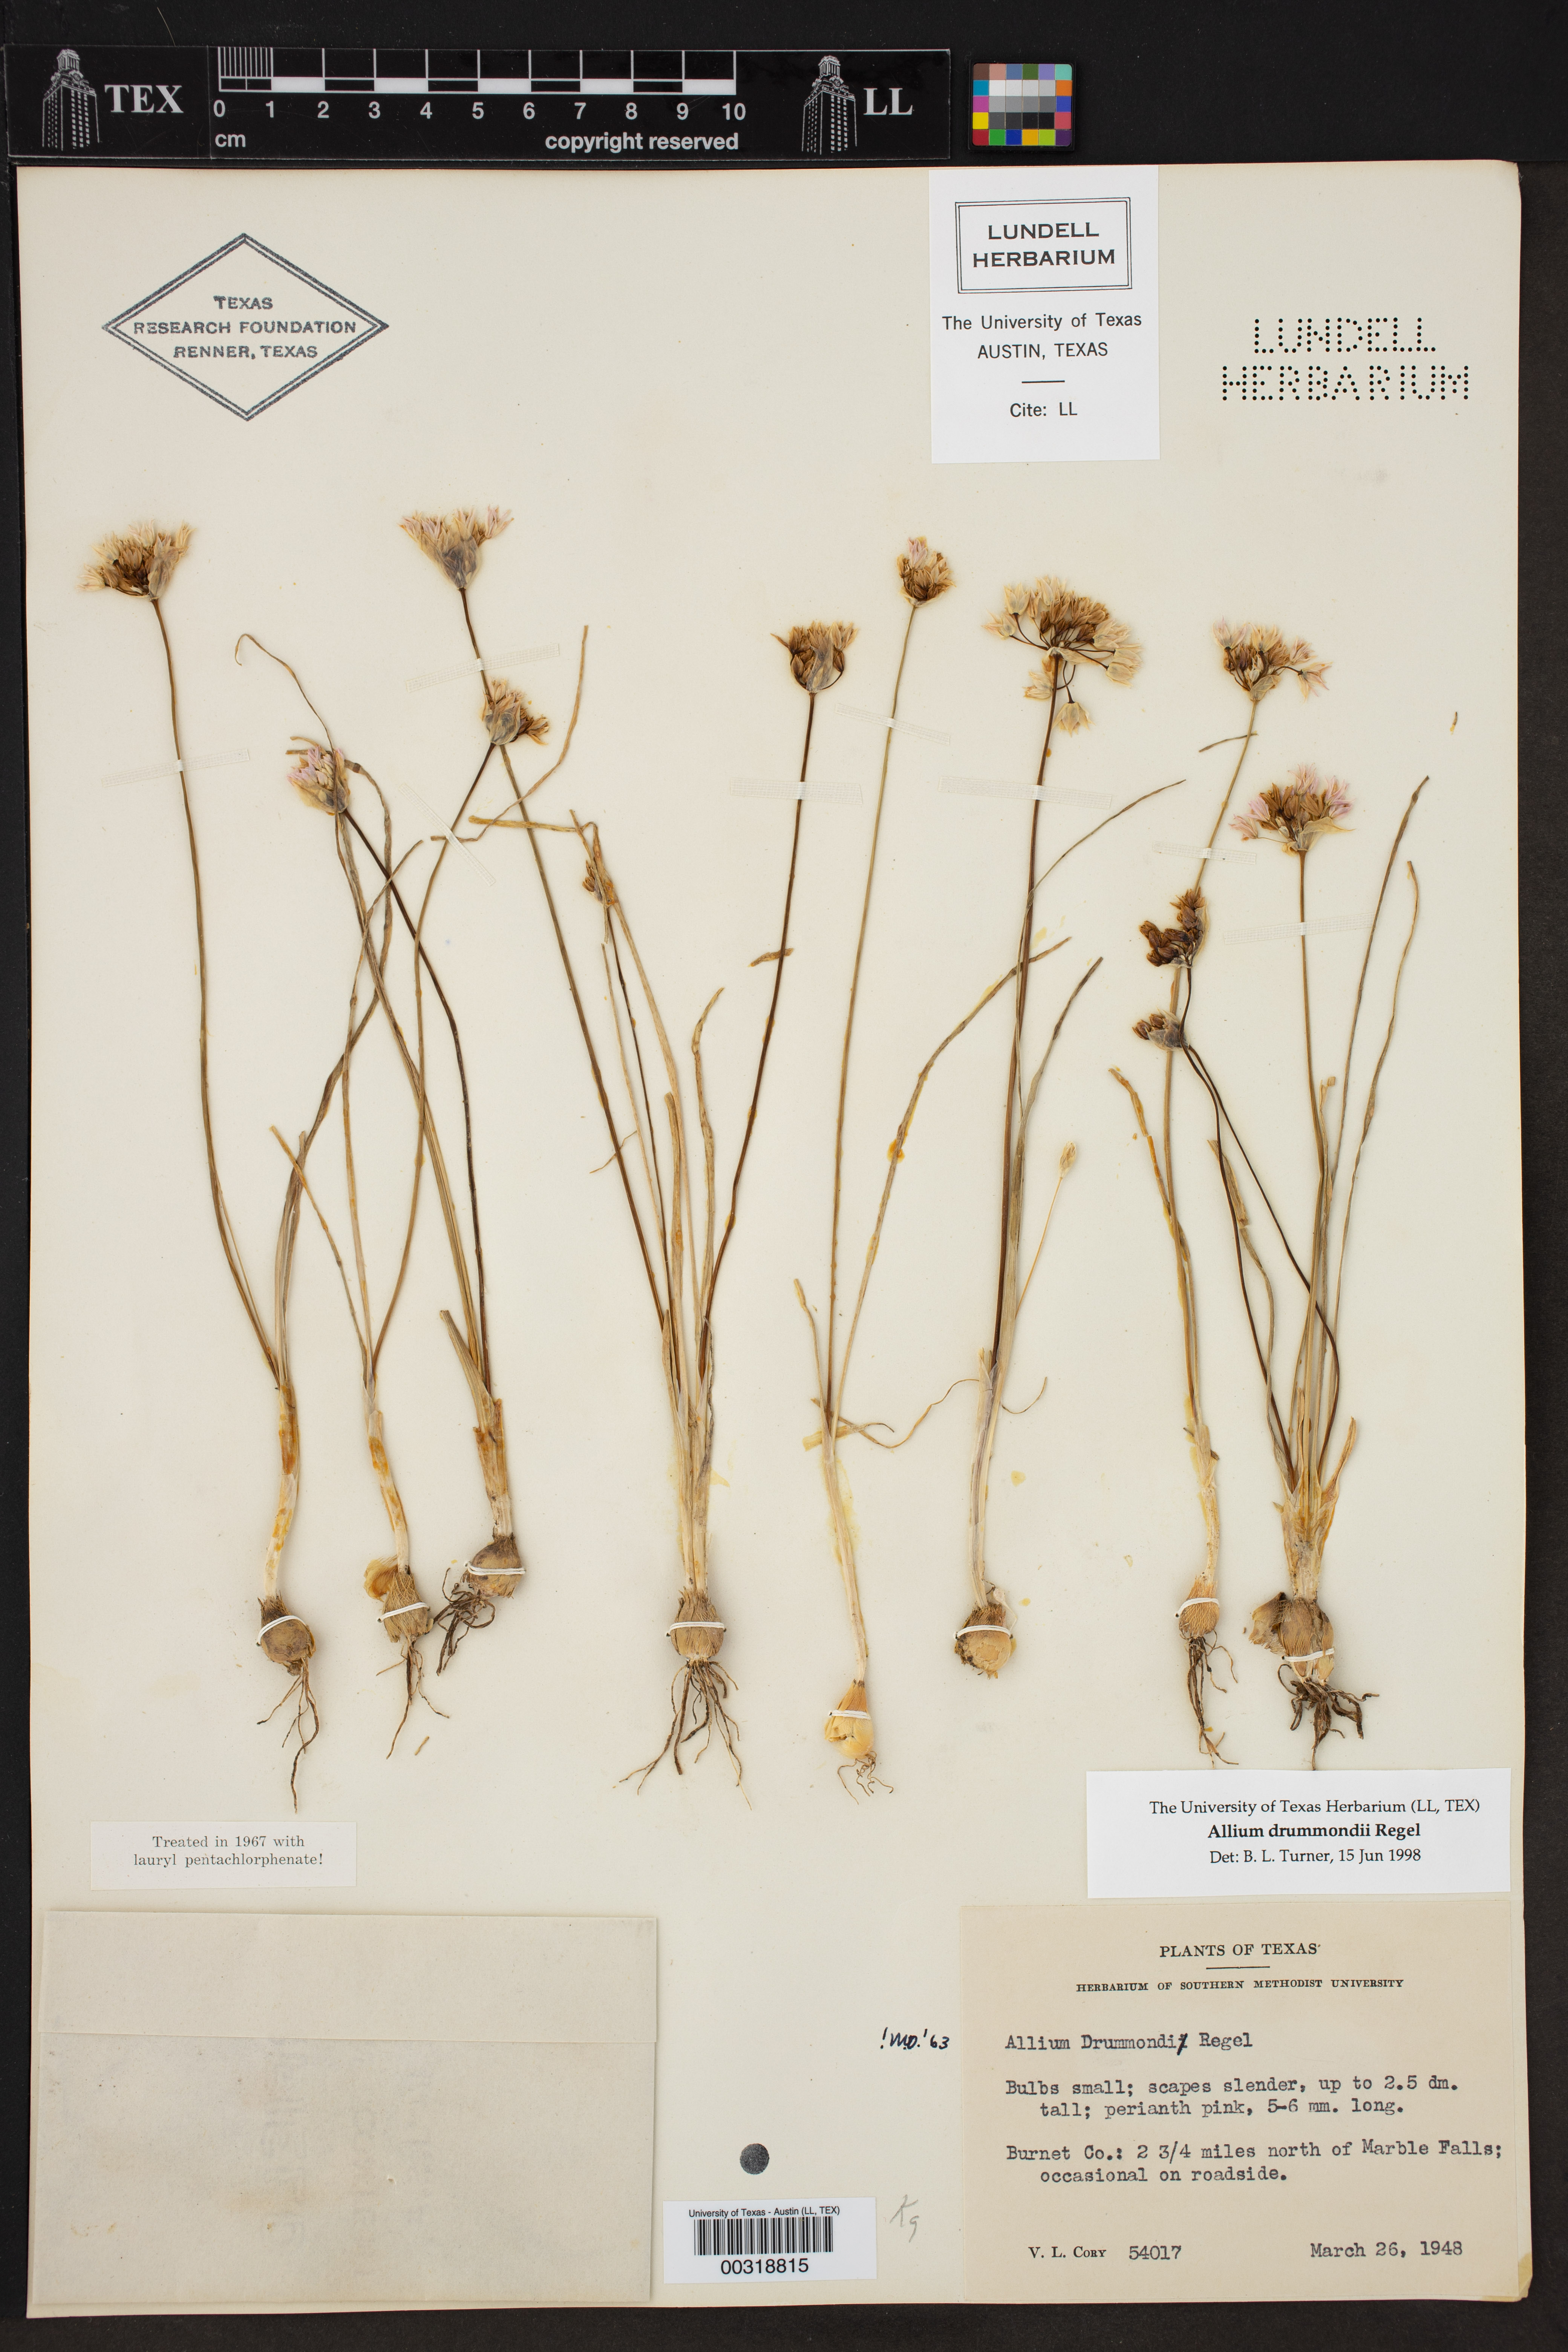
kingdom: Plantae
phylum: Tracheophyta
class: Liliopsida
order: Asparagales
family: Amaryllidaceae
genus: Allium
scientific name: Allium drummondii
